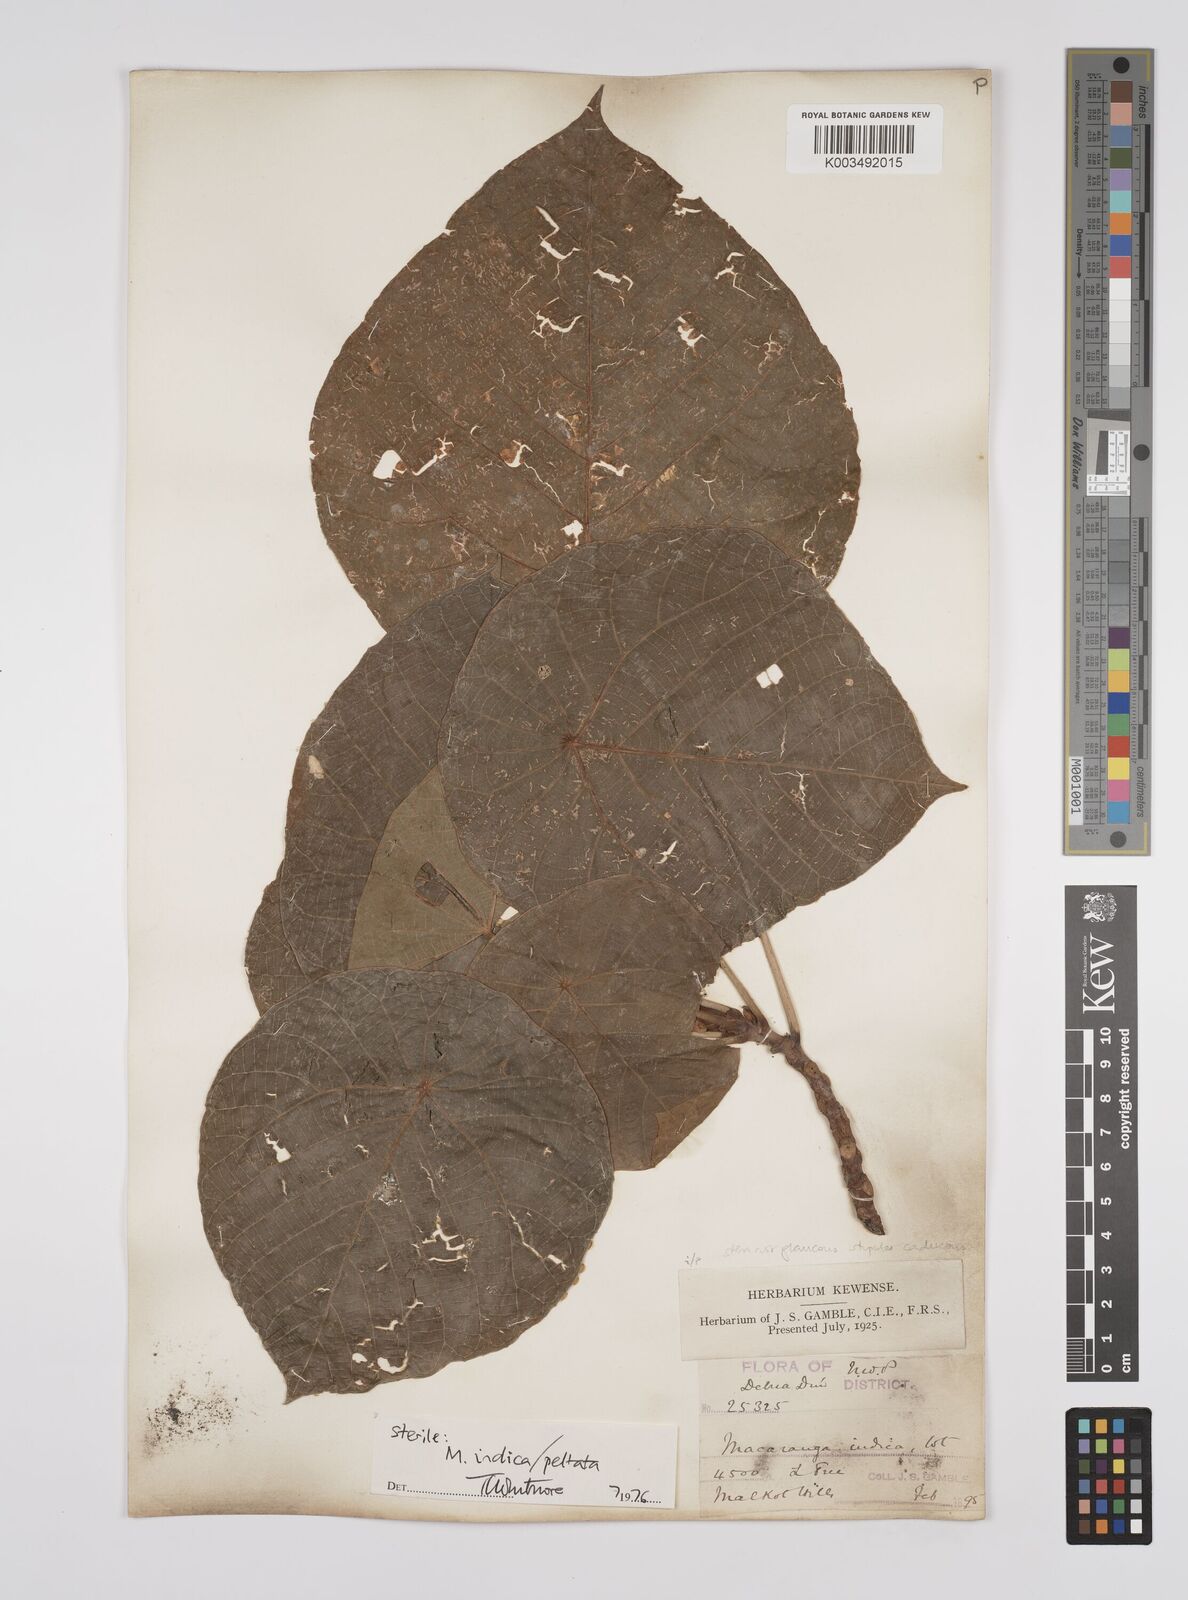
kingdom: Plantae
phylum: Tracheophyta
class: Magnoliopsida
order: Malpighiales
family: Euphorbiaceae
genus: Macaranga
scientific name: Macaranga indica
